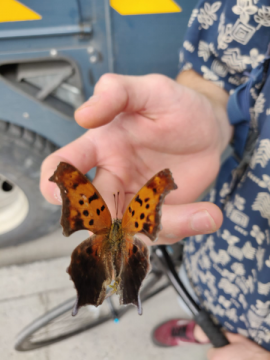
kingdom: Animalia
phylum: Arthropoda
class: Insecta
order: Lepidoptera
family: Nymphalidae
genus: Polygonia
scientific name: Polygonia interrogationis
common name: Question Mark
